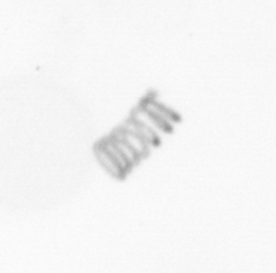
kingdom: Chromista
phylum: Ochrophyta
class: Bacillariophyceae
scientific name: Bacillariophyceae
